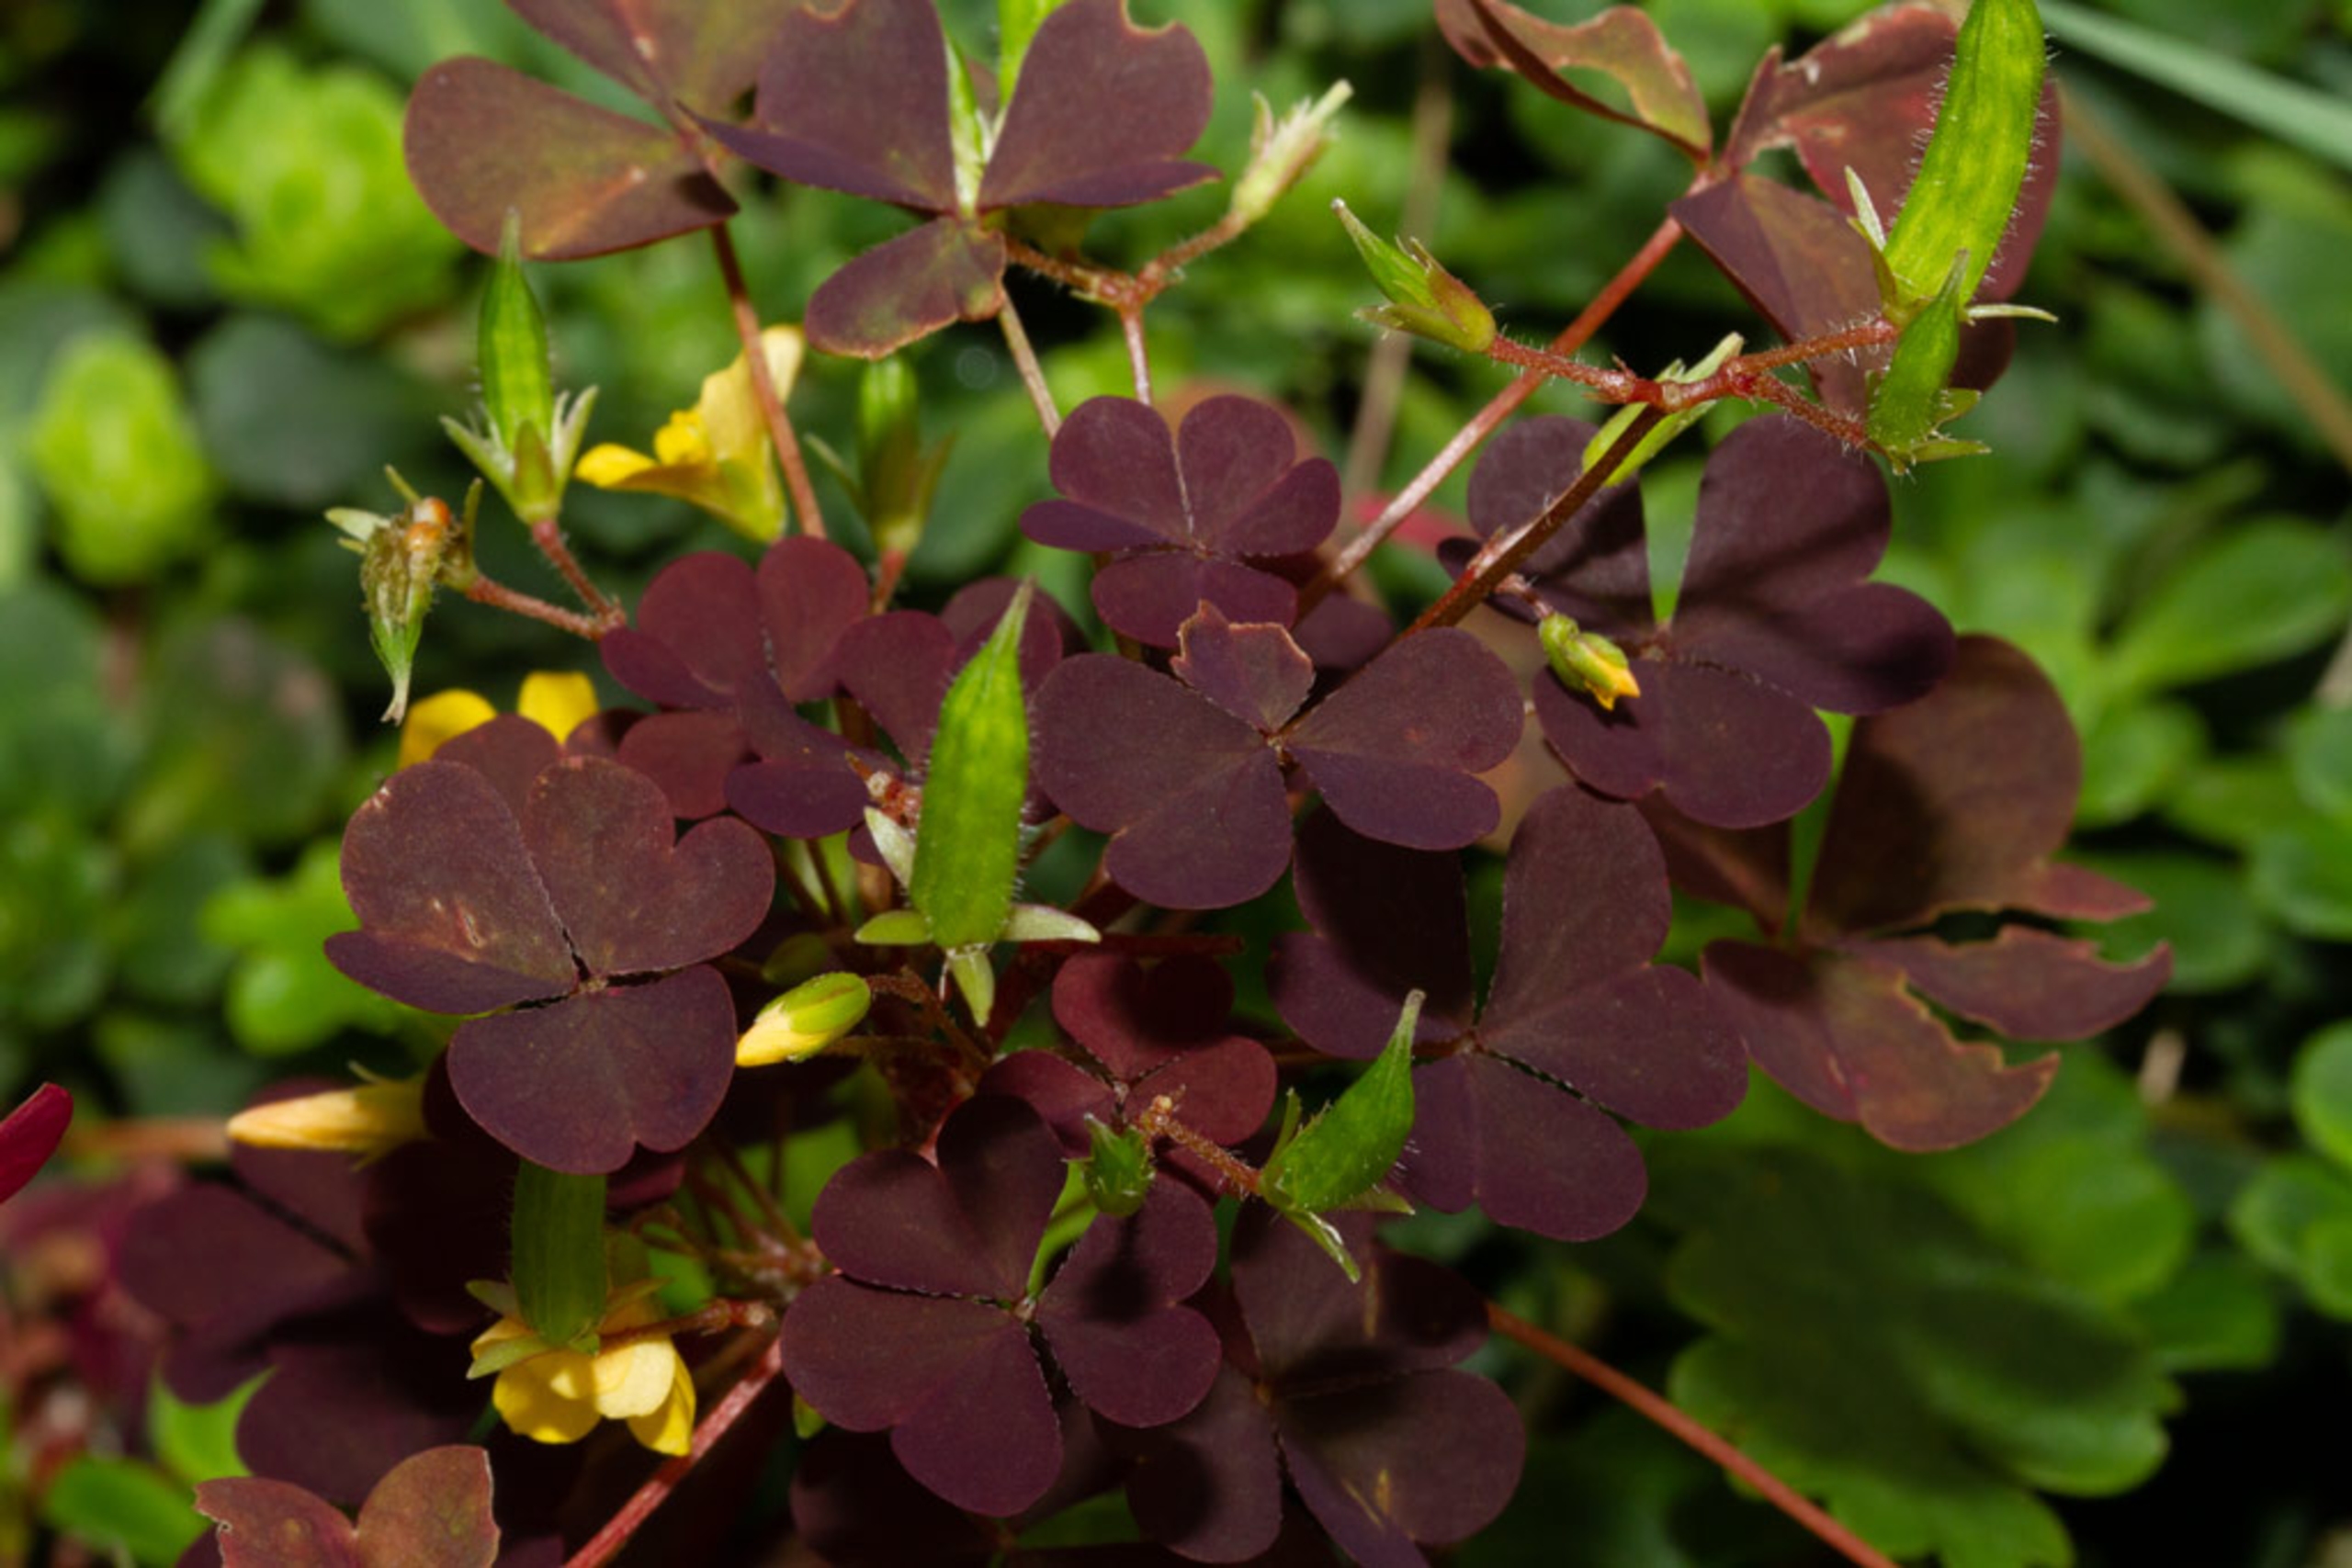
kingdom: Plantae
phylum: Tracheophyta
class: Magnoliopsida
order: Oxalidales
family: Oxalidaceae
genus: Oxalis
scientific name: Oxalis corniculata
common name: Nedliggende surkløver
